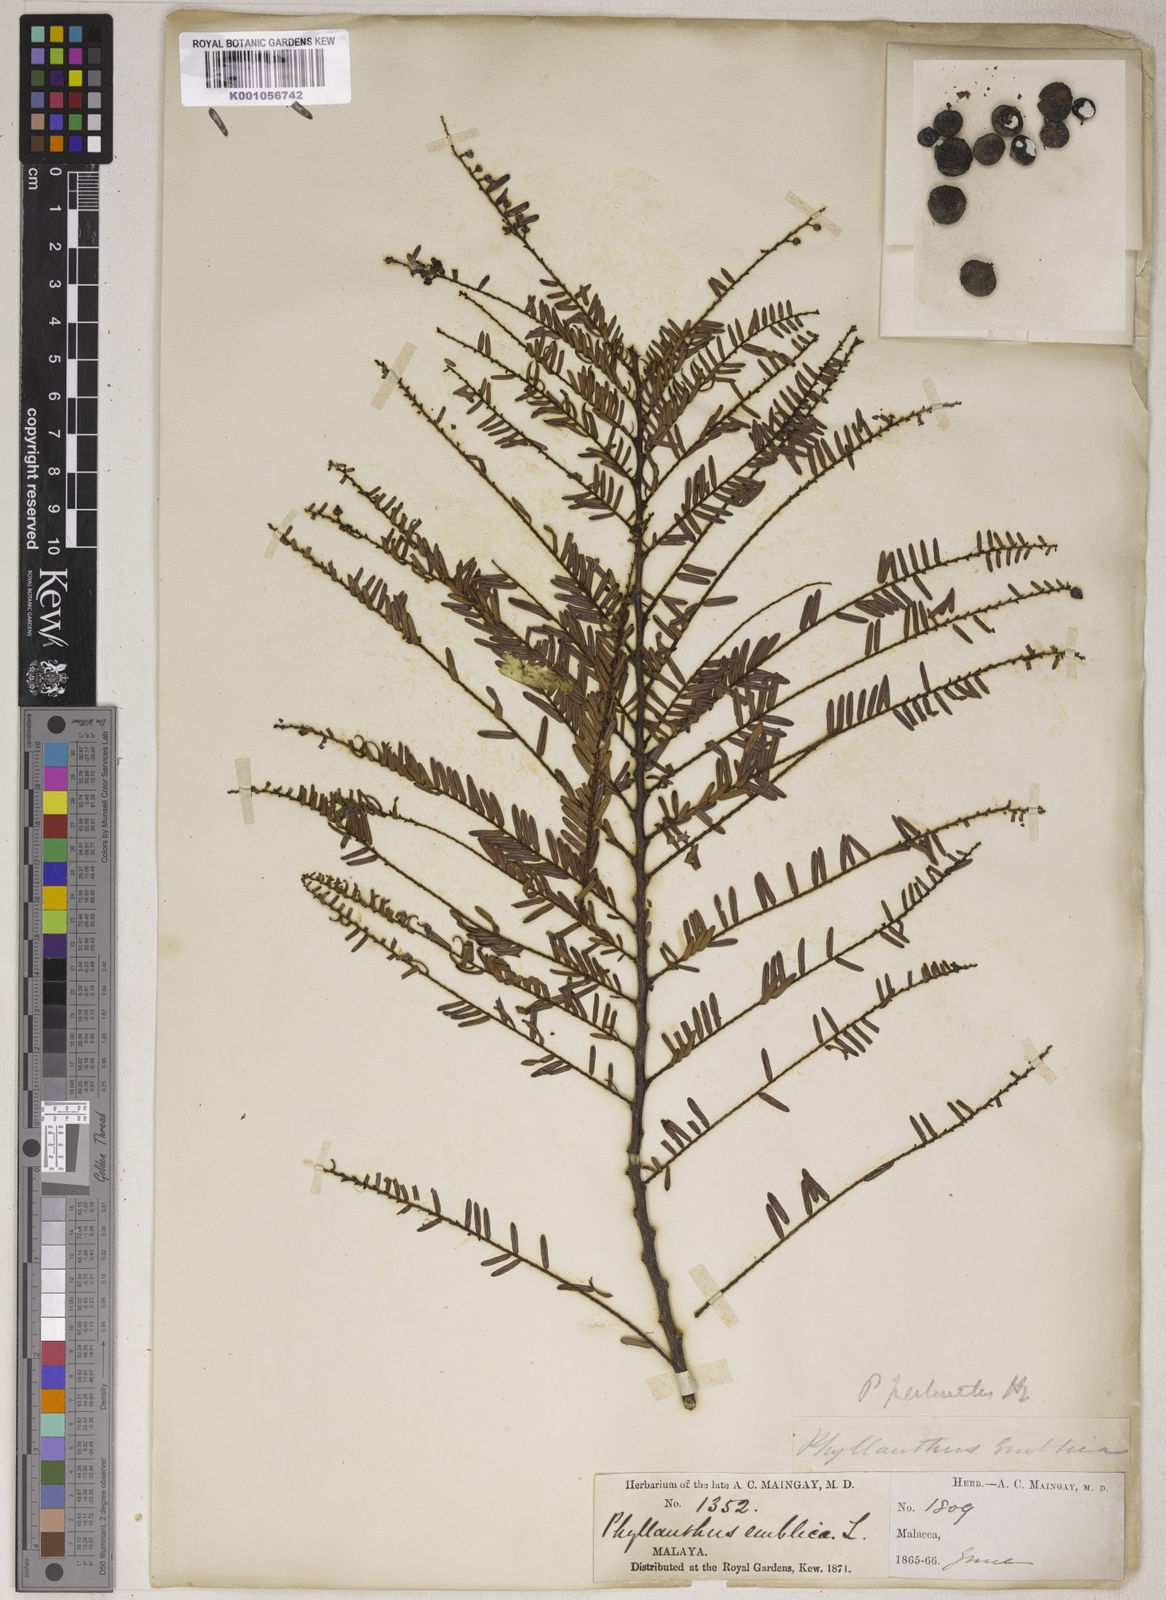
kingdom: Plantae
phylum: Tracheophyta
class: Magnoliopsida
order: Malpighiales
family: Phyllanthaceae
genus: Phyllanthus
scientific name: Phyllanthus emblica
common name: Indian gooseberry
